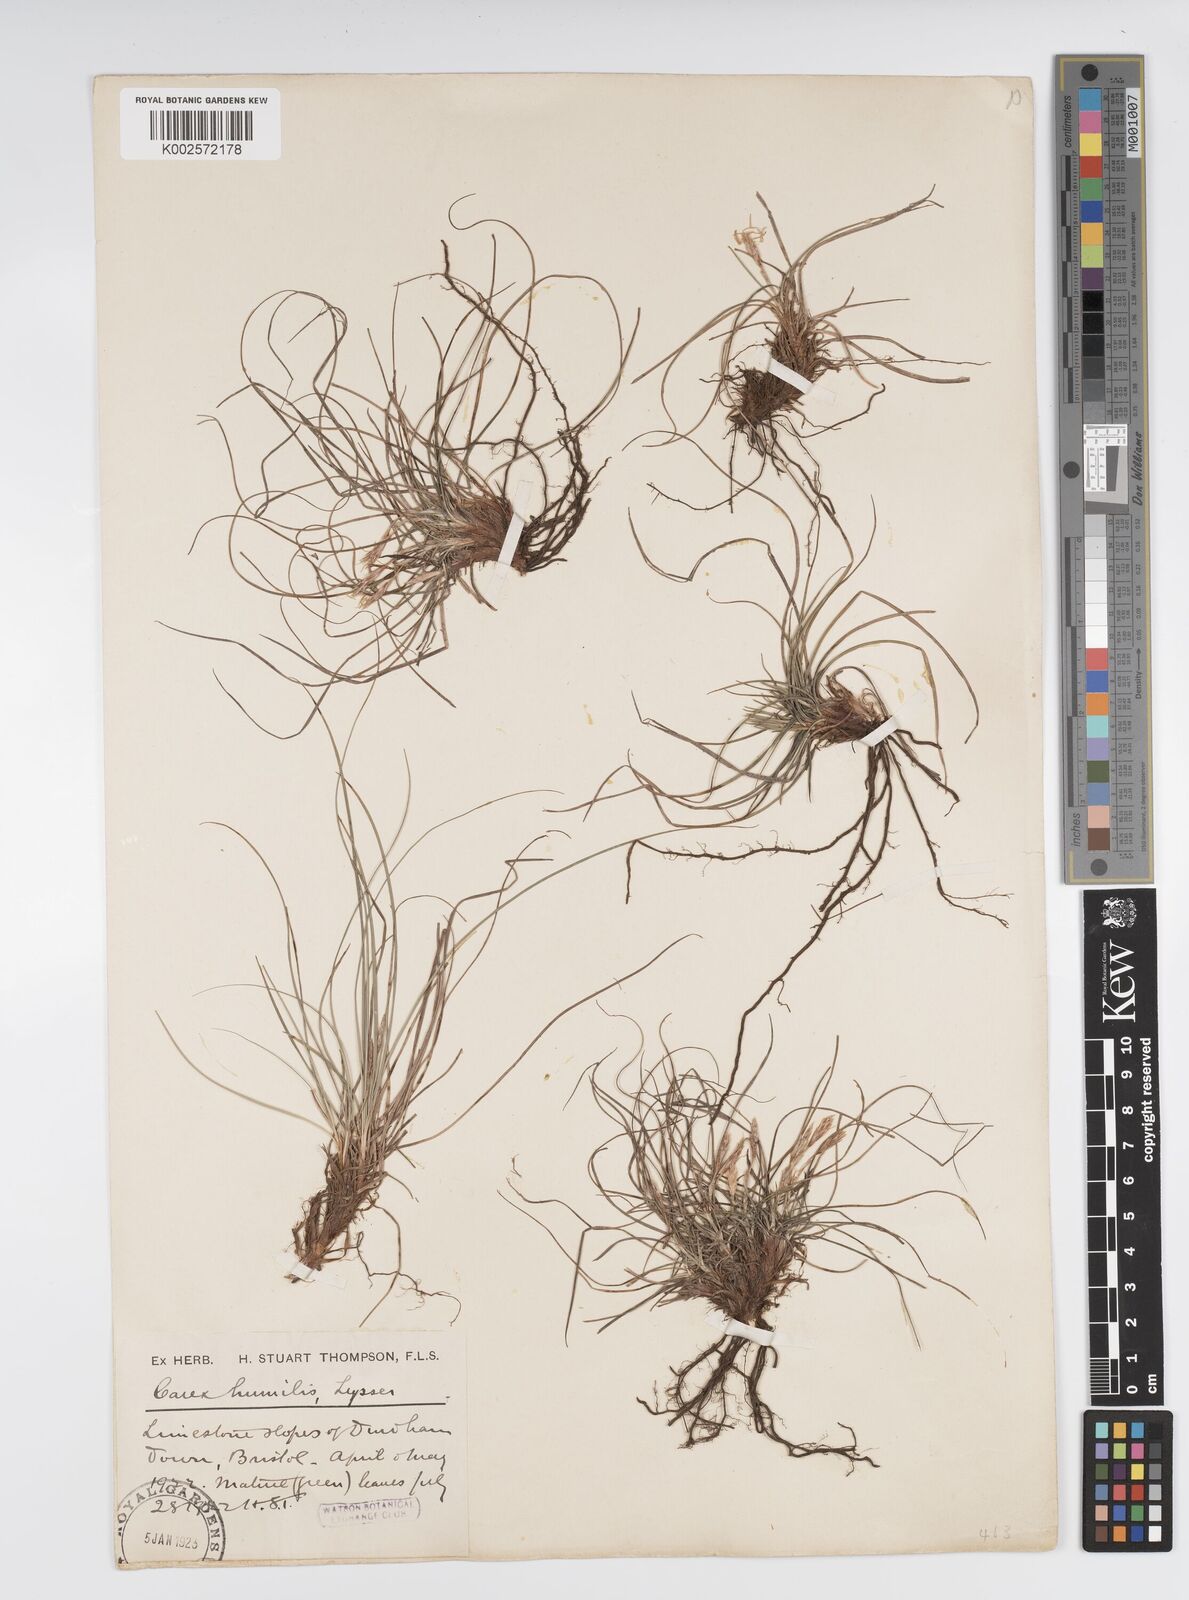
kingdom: Plantae
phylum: Tracheophyta
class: Liliopsida
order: Poales
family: Cyperaceae
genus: Carex
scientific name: Carex humilis
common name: Dwarf sedge
